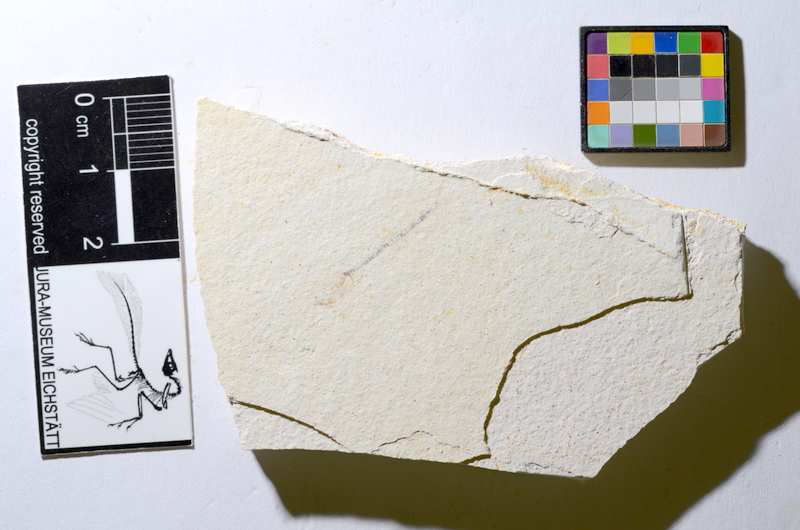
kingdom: Animalia
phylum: Chordata
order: Salmoniformes
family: Orthogonikleithridae
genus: Orthogonikleithrus
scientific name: Orthogonikleithrus hoelli
